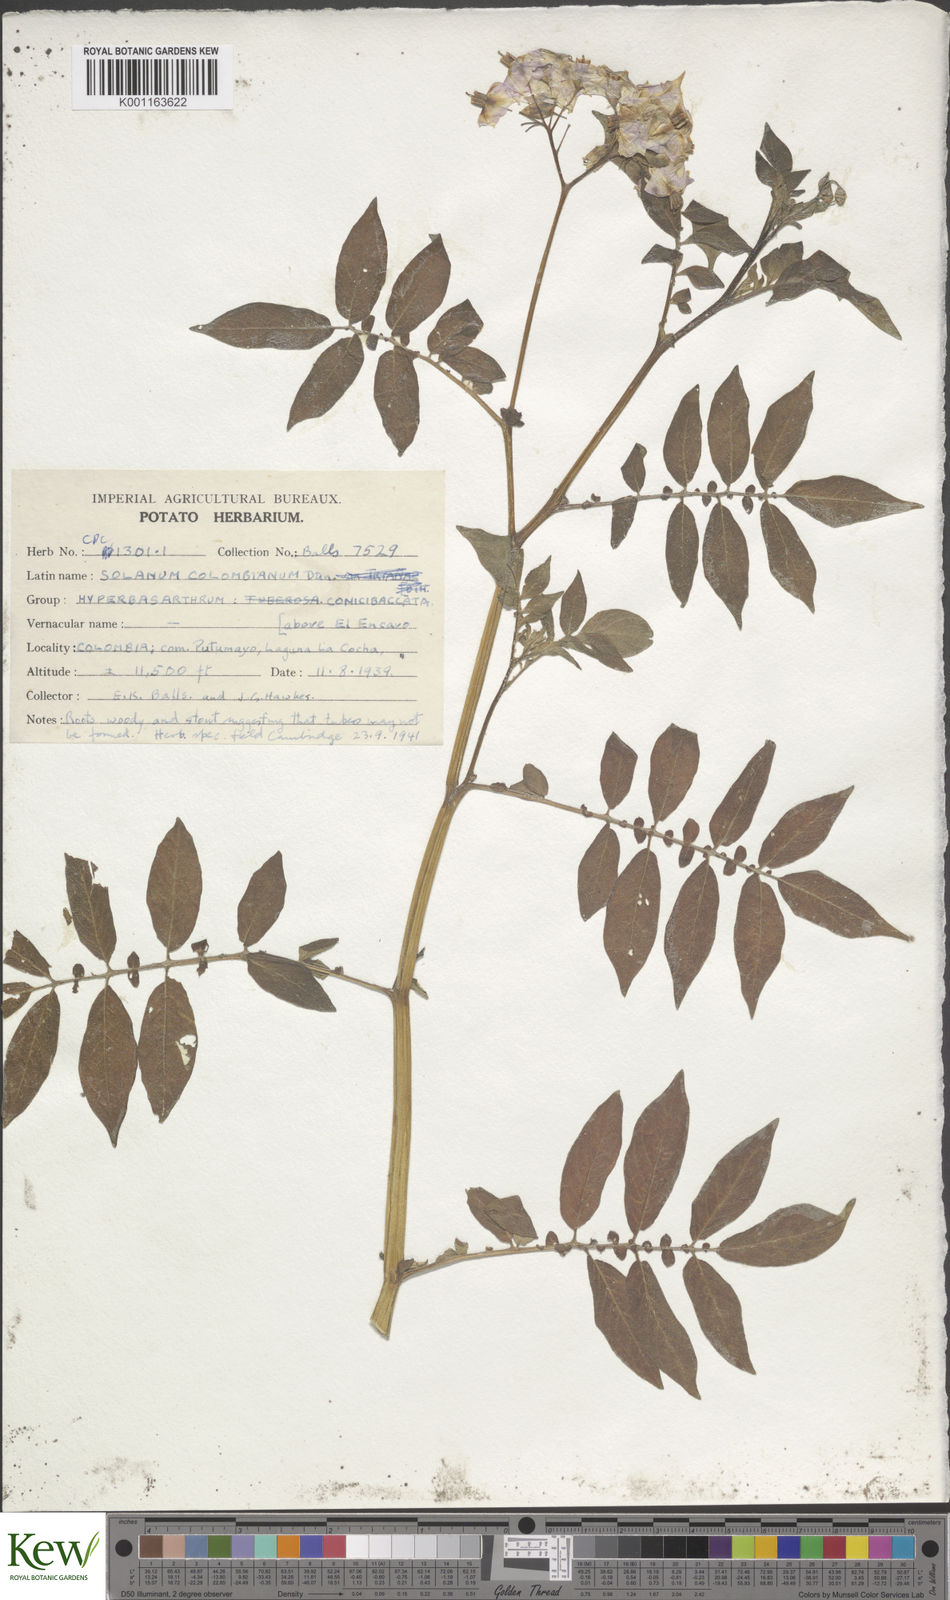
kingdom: Plantae
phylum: Tracheophyta
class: Magnoliopsida
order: Solanales
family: Solanaceae
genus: Solanum
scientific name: Solanum colombianum
